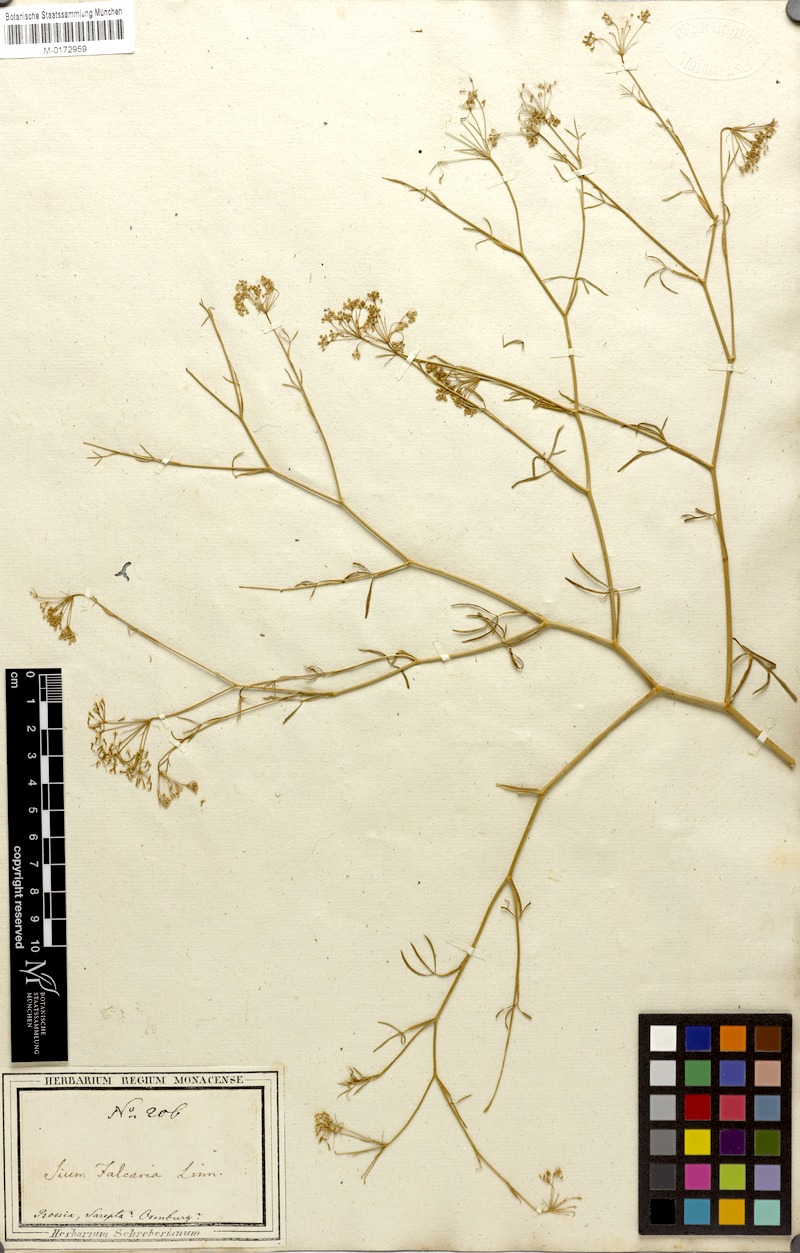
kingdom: Plantae
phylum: Tracheophyta
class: Magnoliopsida
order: Apiales
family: Apiaceae
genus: Falcaria
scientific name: Falcaria vulgaris
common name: Longleaf
